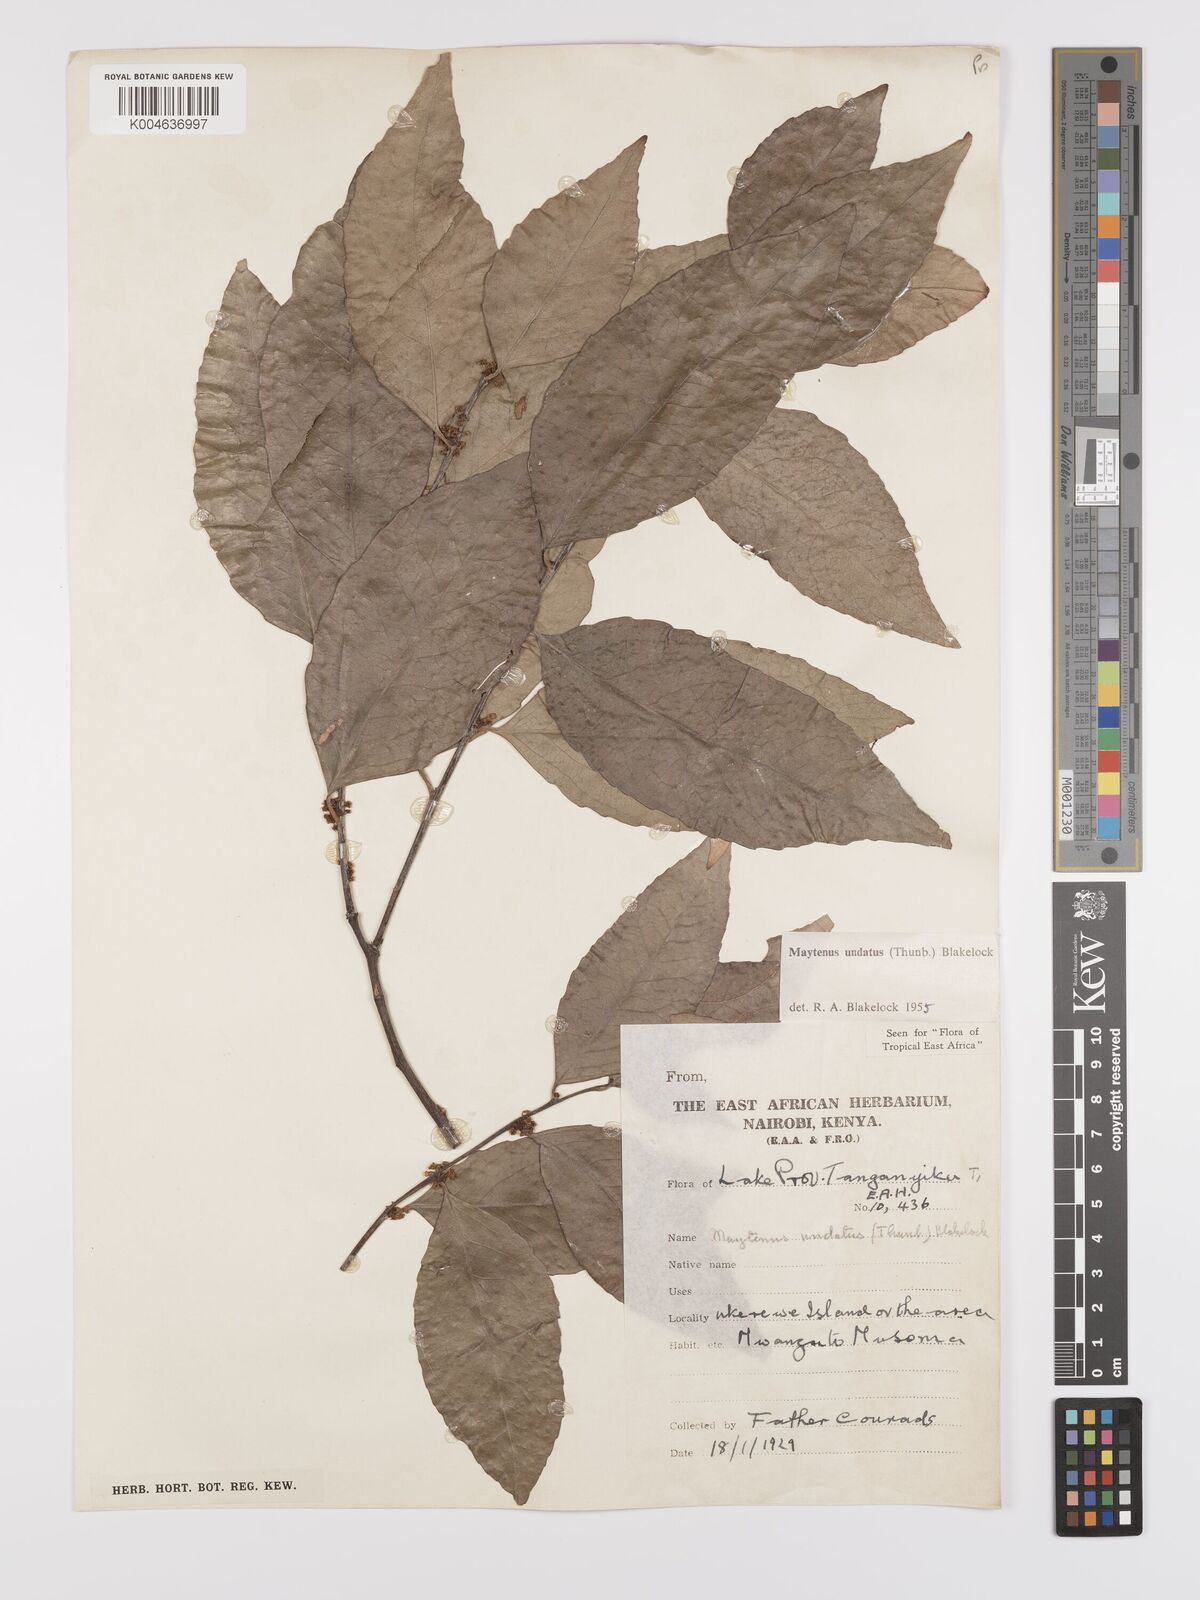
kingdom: Plantae
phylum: Tracheophyta
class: Magnoliopsida
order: Celastrales
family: Celastraceae
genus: Gymnosporia
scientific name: Gymnosporia undata
